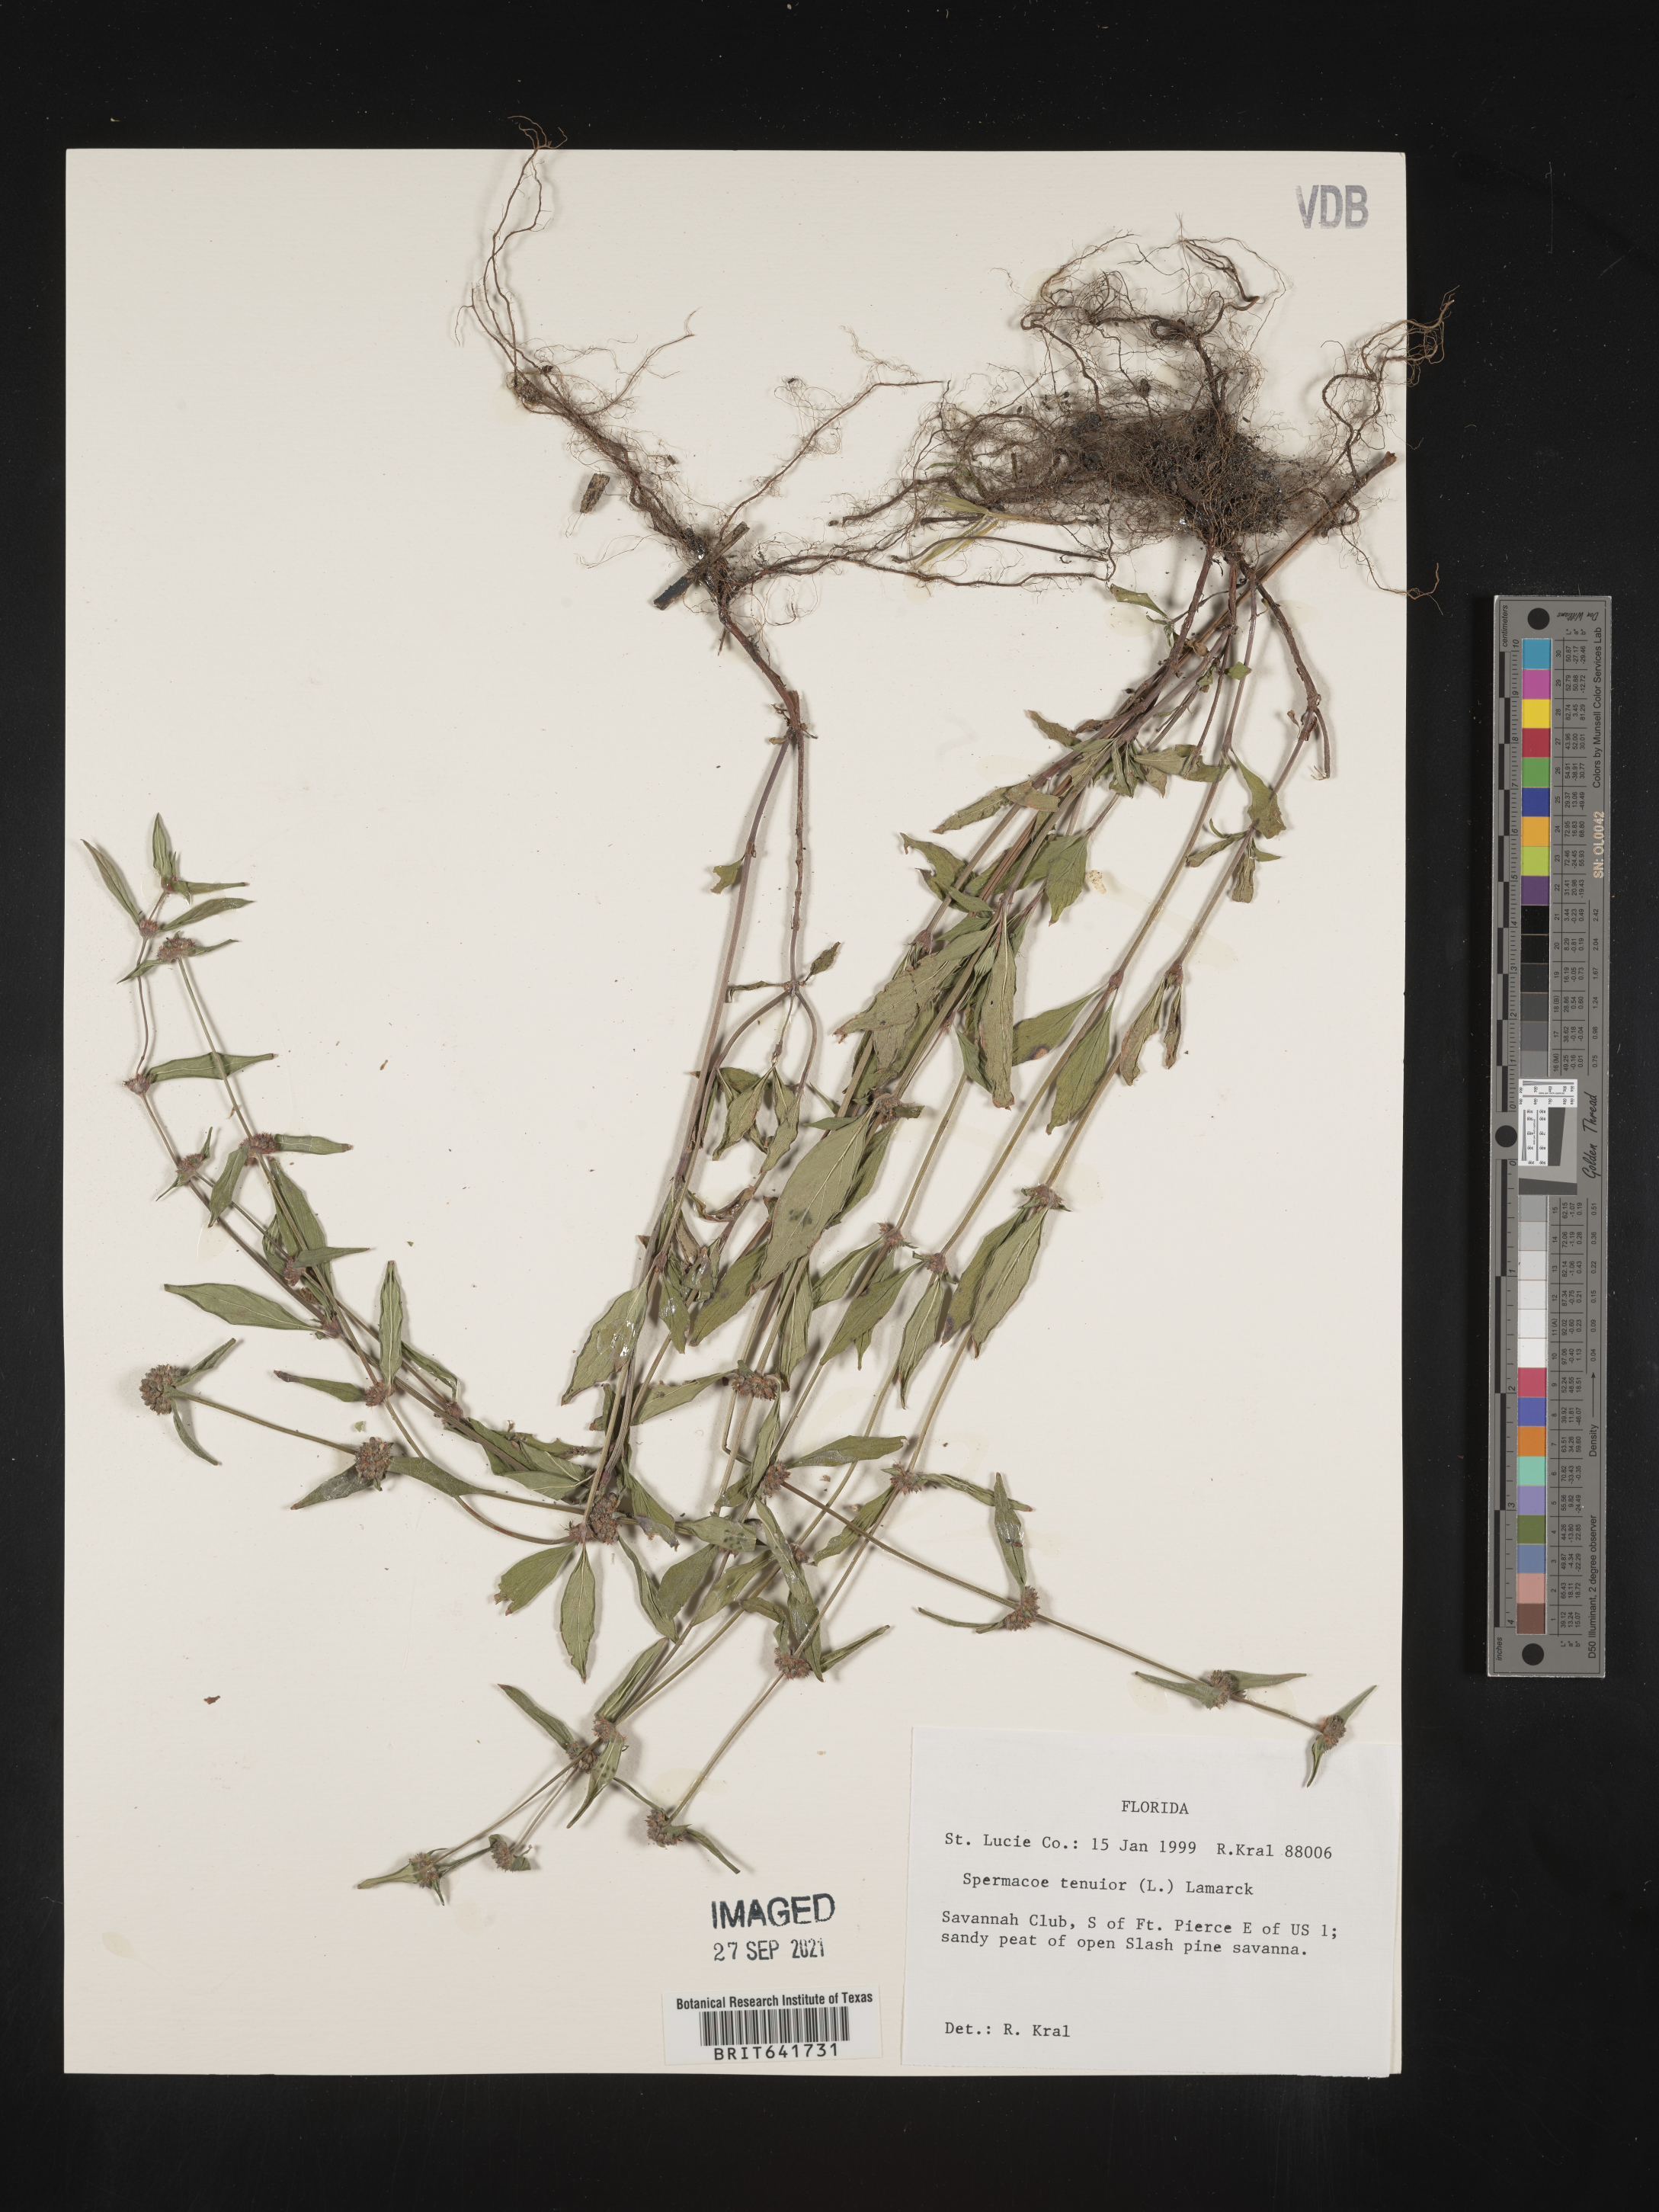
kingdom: Plantae
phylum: Tracheophyta
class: Magnoliopsida
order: Gentianales
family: Rubiaceae
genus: Spermacoce
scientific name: Spermacoce tenuior
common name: River false buttonweed
